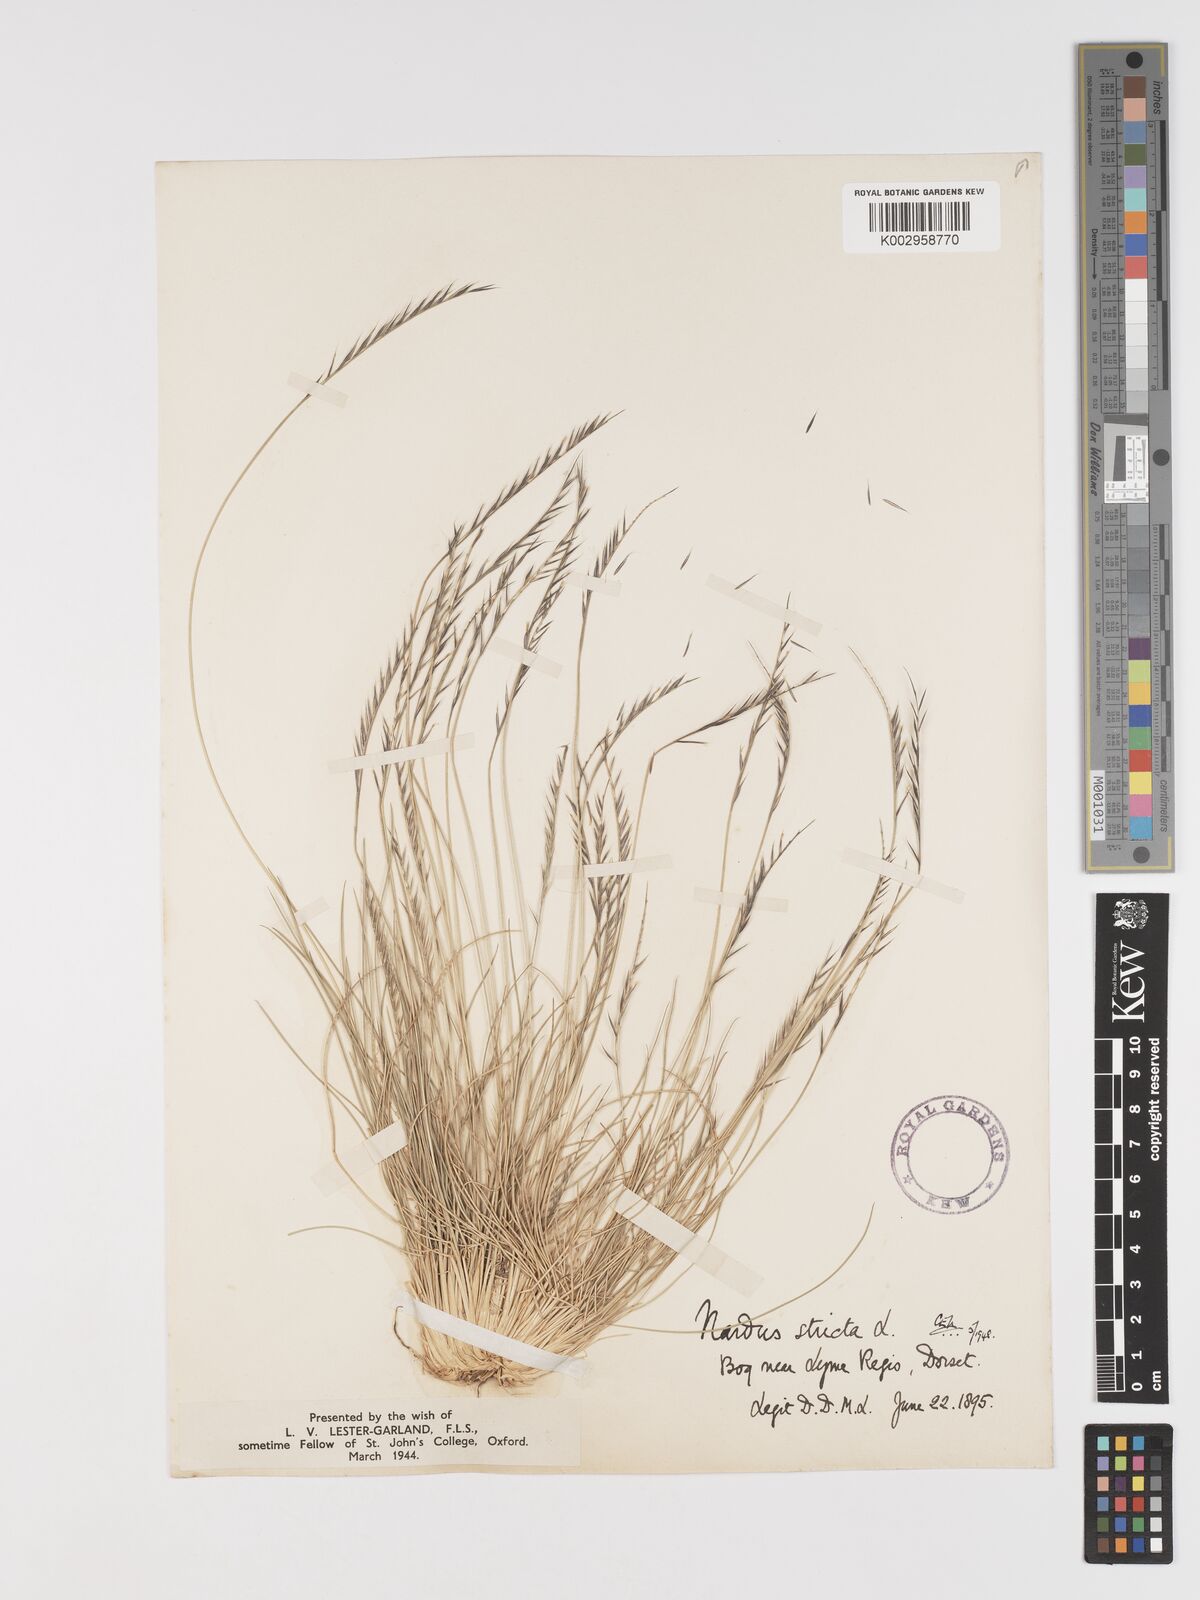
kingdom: Plantae
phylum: Tracheophyta
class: Liliopsida
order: Poales
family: Poaceae
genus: Nardus
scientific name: Nardus stricta
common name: Mat-grass
